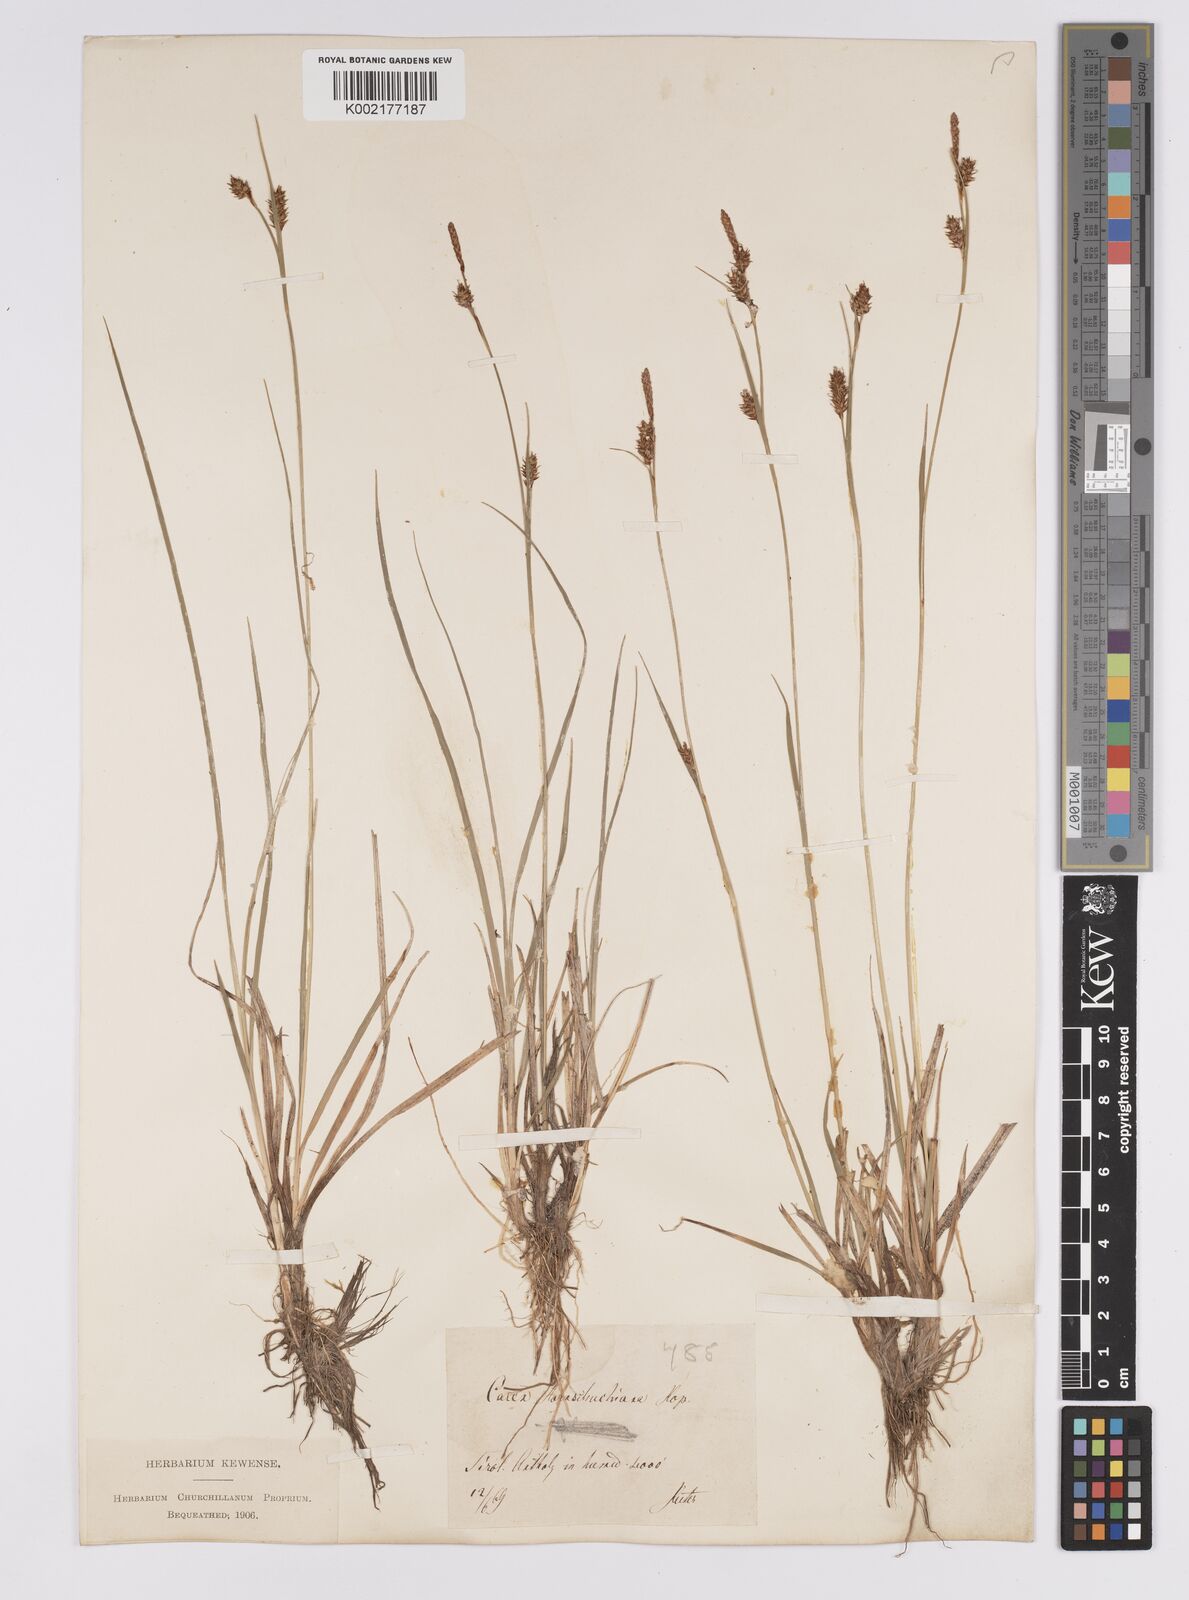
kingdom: Plantae
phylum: Tracheophyta
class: Liliopsida
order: Poales
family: Cyperaceae
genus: Carex
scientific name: Carex hostiana
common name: Tawny sedge
